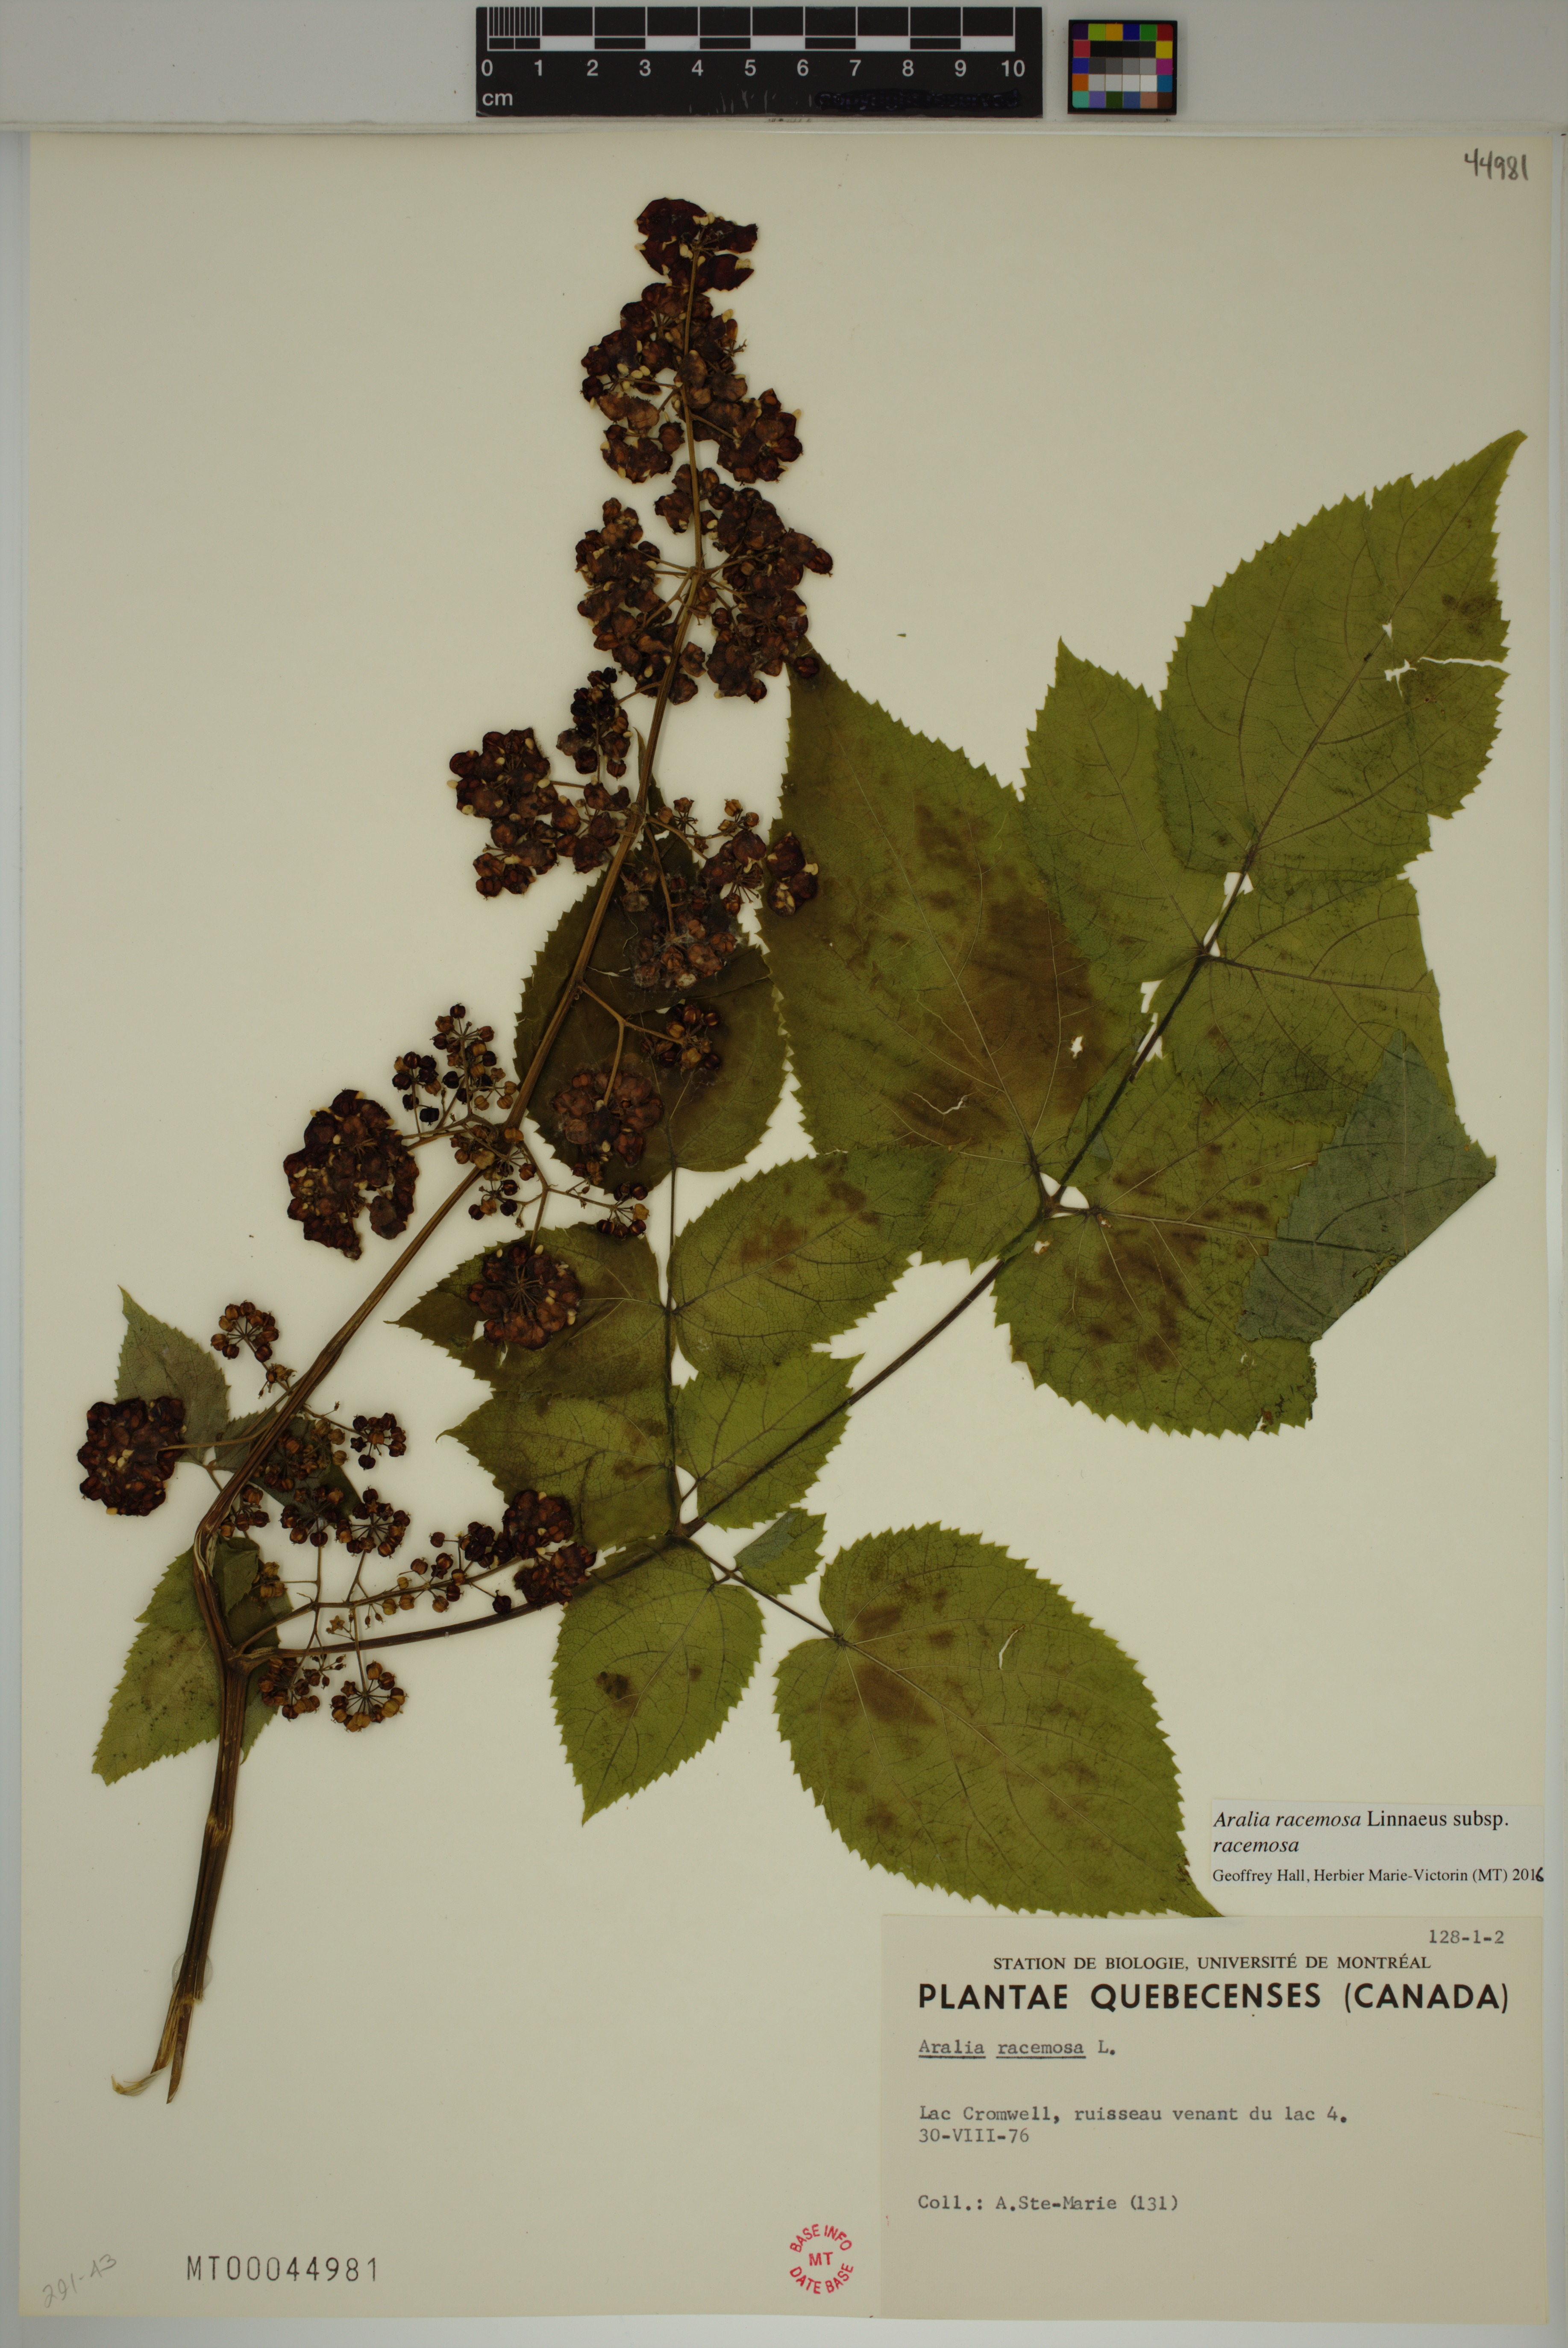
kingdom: Plantae
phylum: Tracheophyta
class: Magnoliopsida
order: Apiales
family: Araliaceae
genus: Aralia
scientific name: Aralia racemosa
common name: American-spikenard
